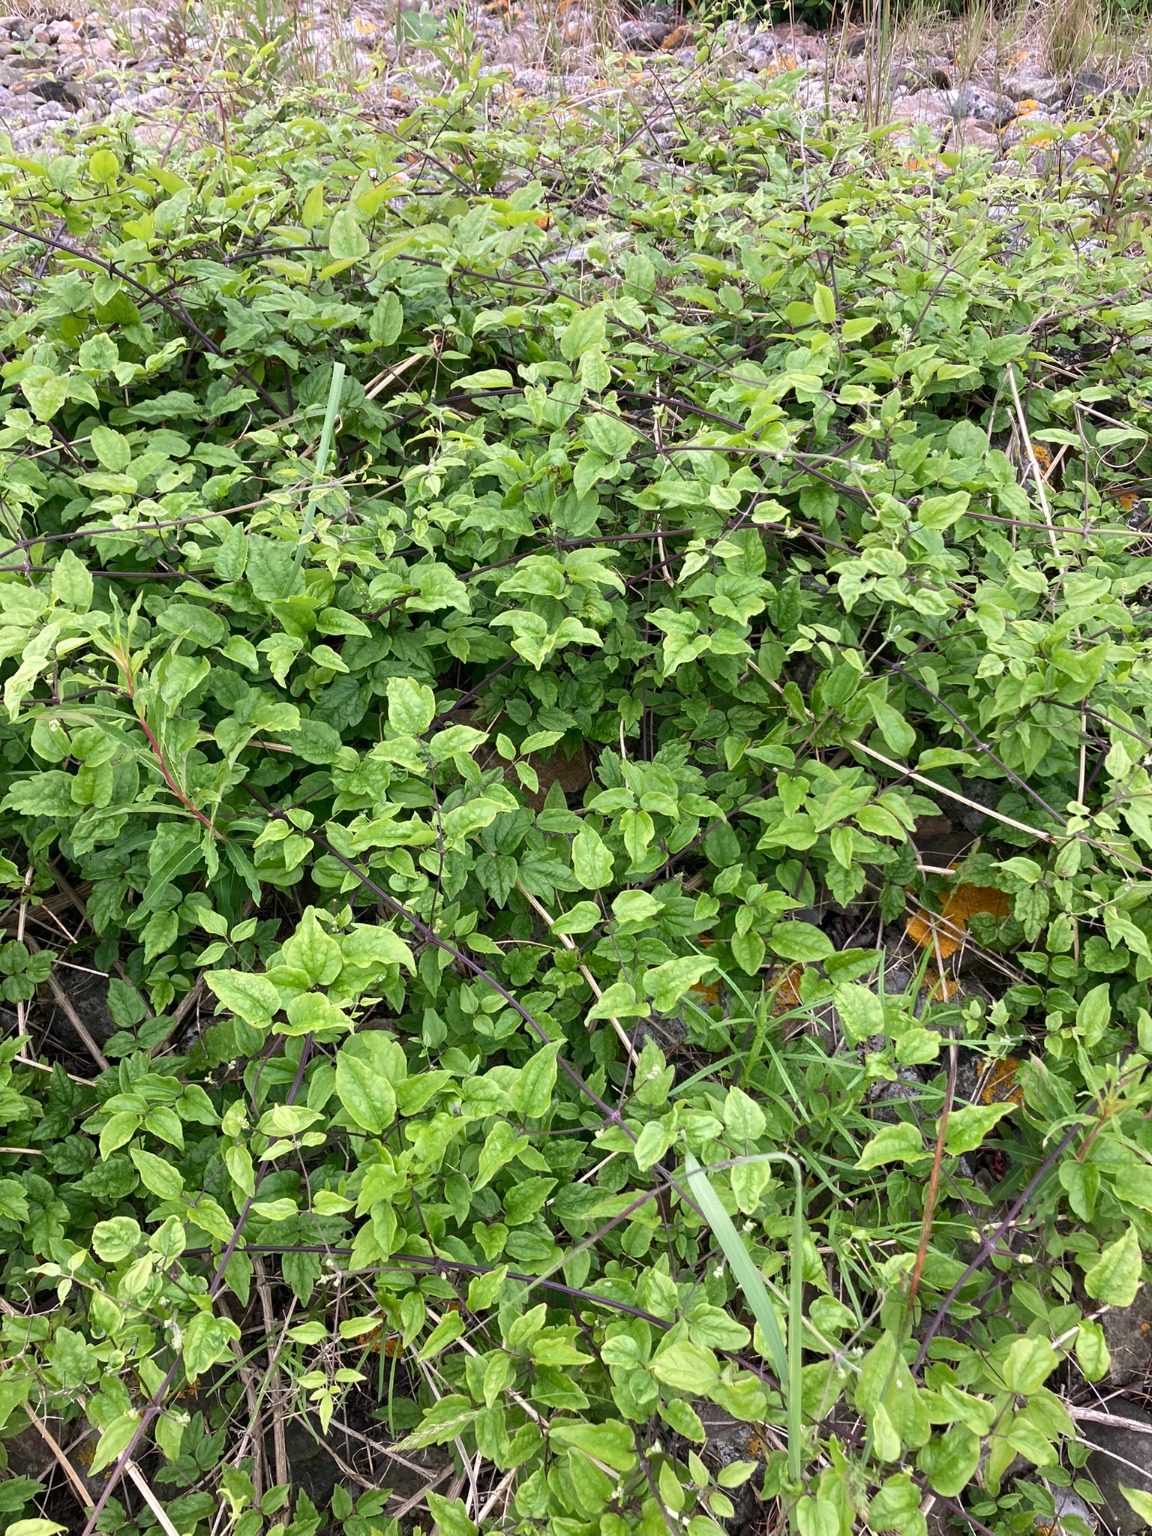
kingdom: Plantae
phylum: Tracheophyta
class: Magnoliopsida
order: Ranunculales
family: Ranunculaceae
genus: Clematis
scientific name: Clematis vitalba
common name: Skovranke
